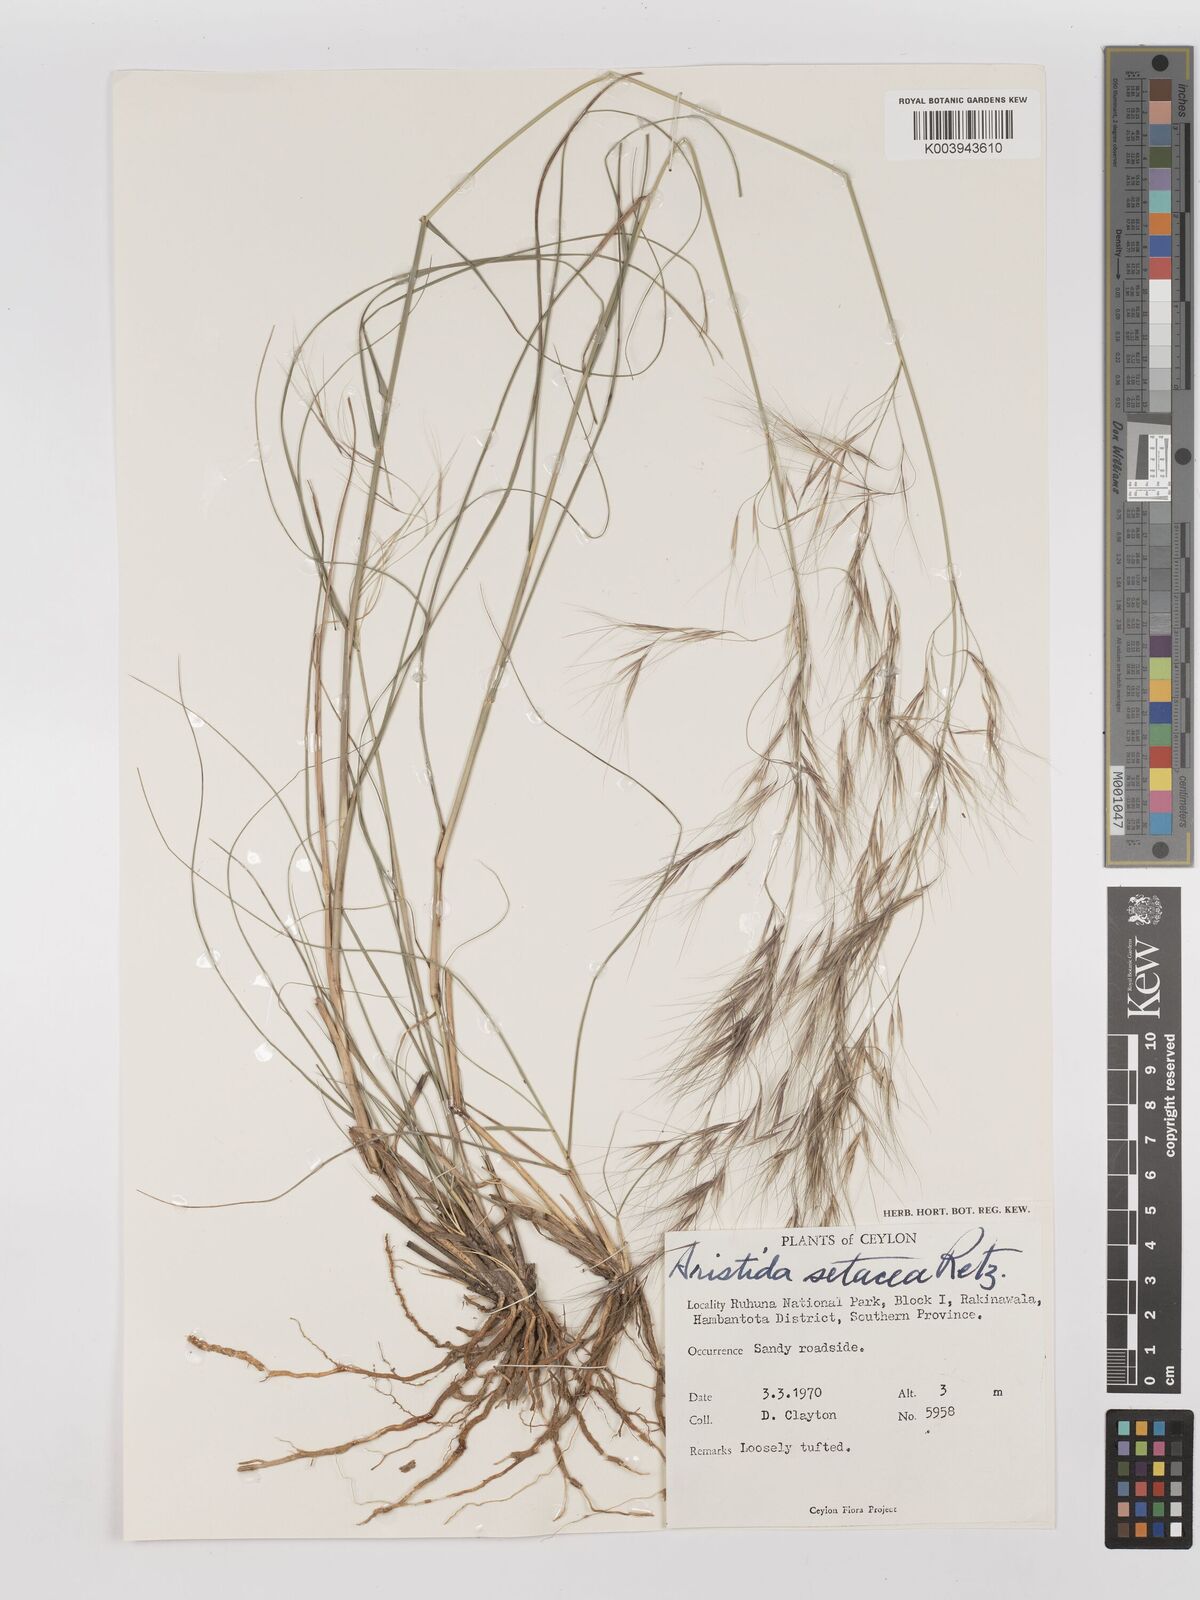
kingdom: Plantae
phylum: Tracheophyta
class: Liliopsida
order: Poales
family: Poaceae
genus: Aristida
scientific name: Aristida setacea
